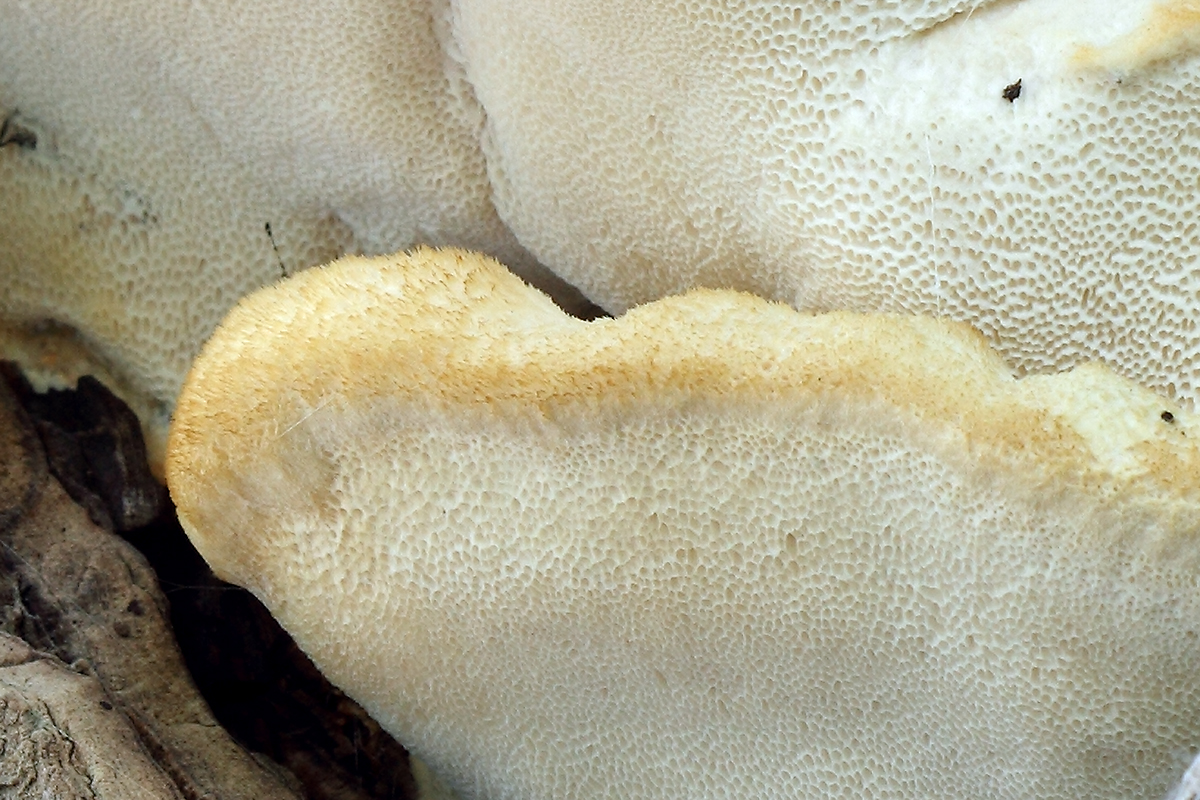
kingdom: Fungi
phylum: Basidiomycota
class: Agaricomycetes
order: Polyporales
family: Meruliaceae
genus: Pappia
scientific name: Pappia fissilis
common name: sej fedtporesvamp
